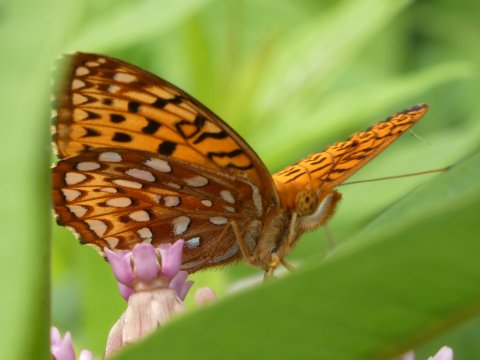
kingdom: Animalia
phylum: Arthropoda
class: Insecta
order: Lepidoptera
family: Nymphalidae
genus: Speyeria
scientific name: Speyeria aphrodite
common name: Aphrodite Fritillary
